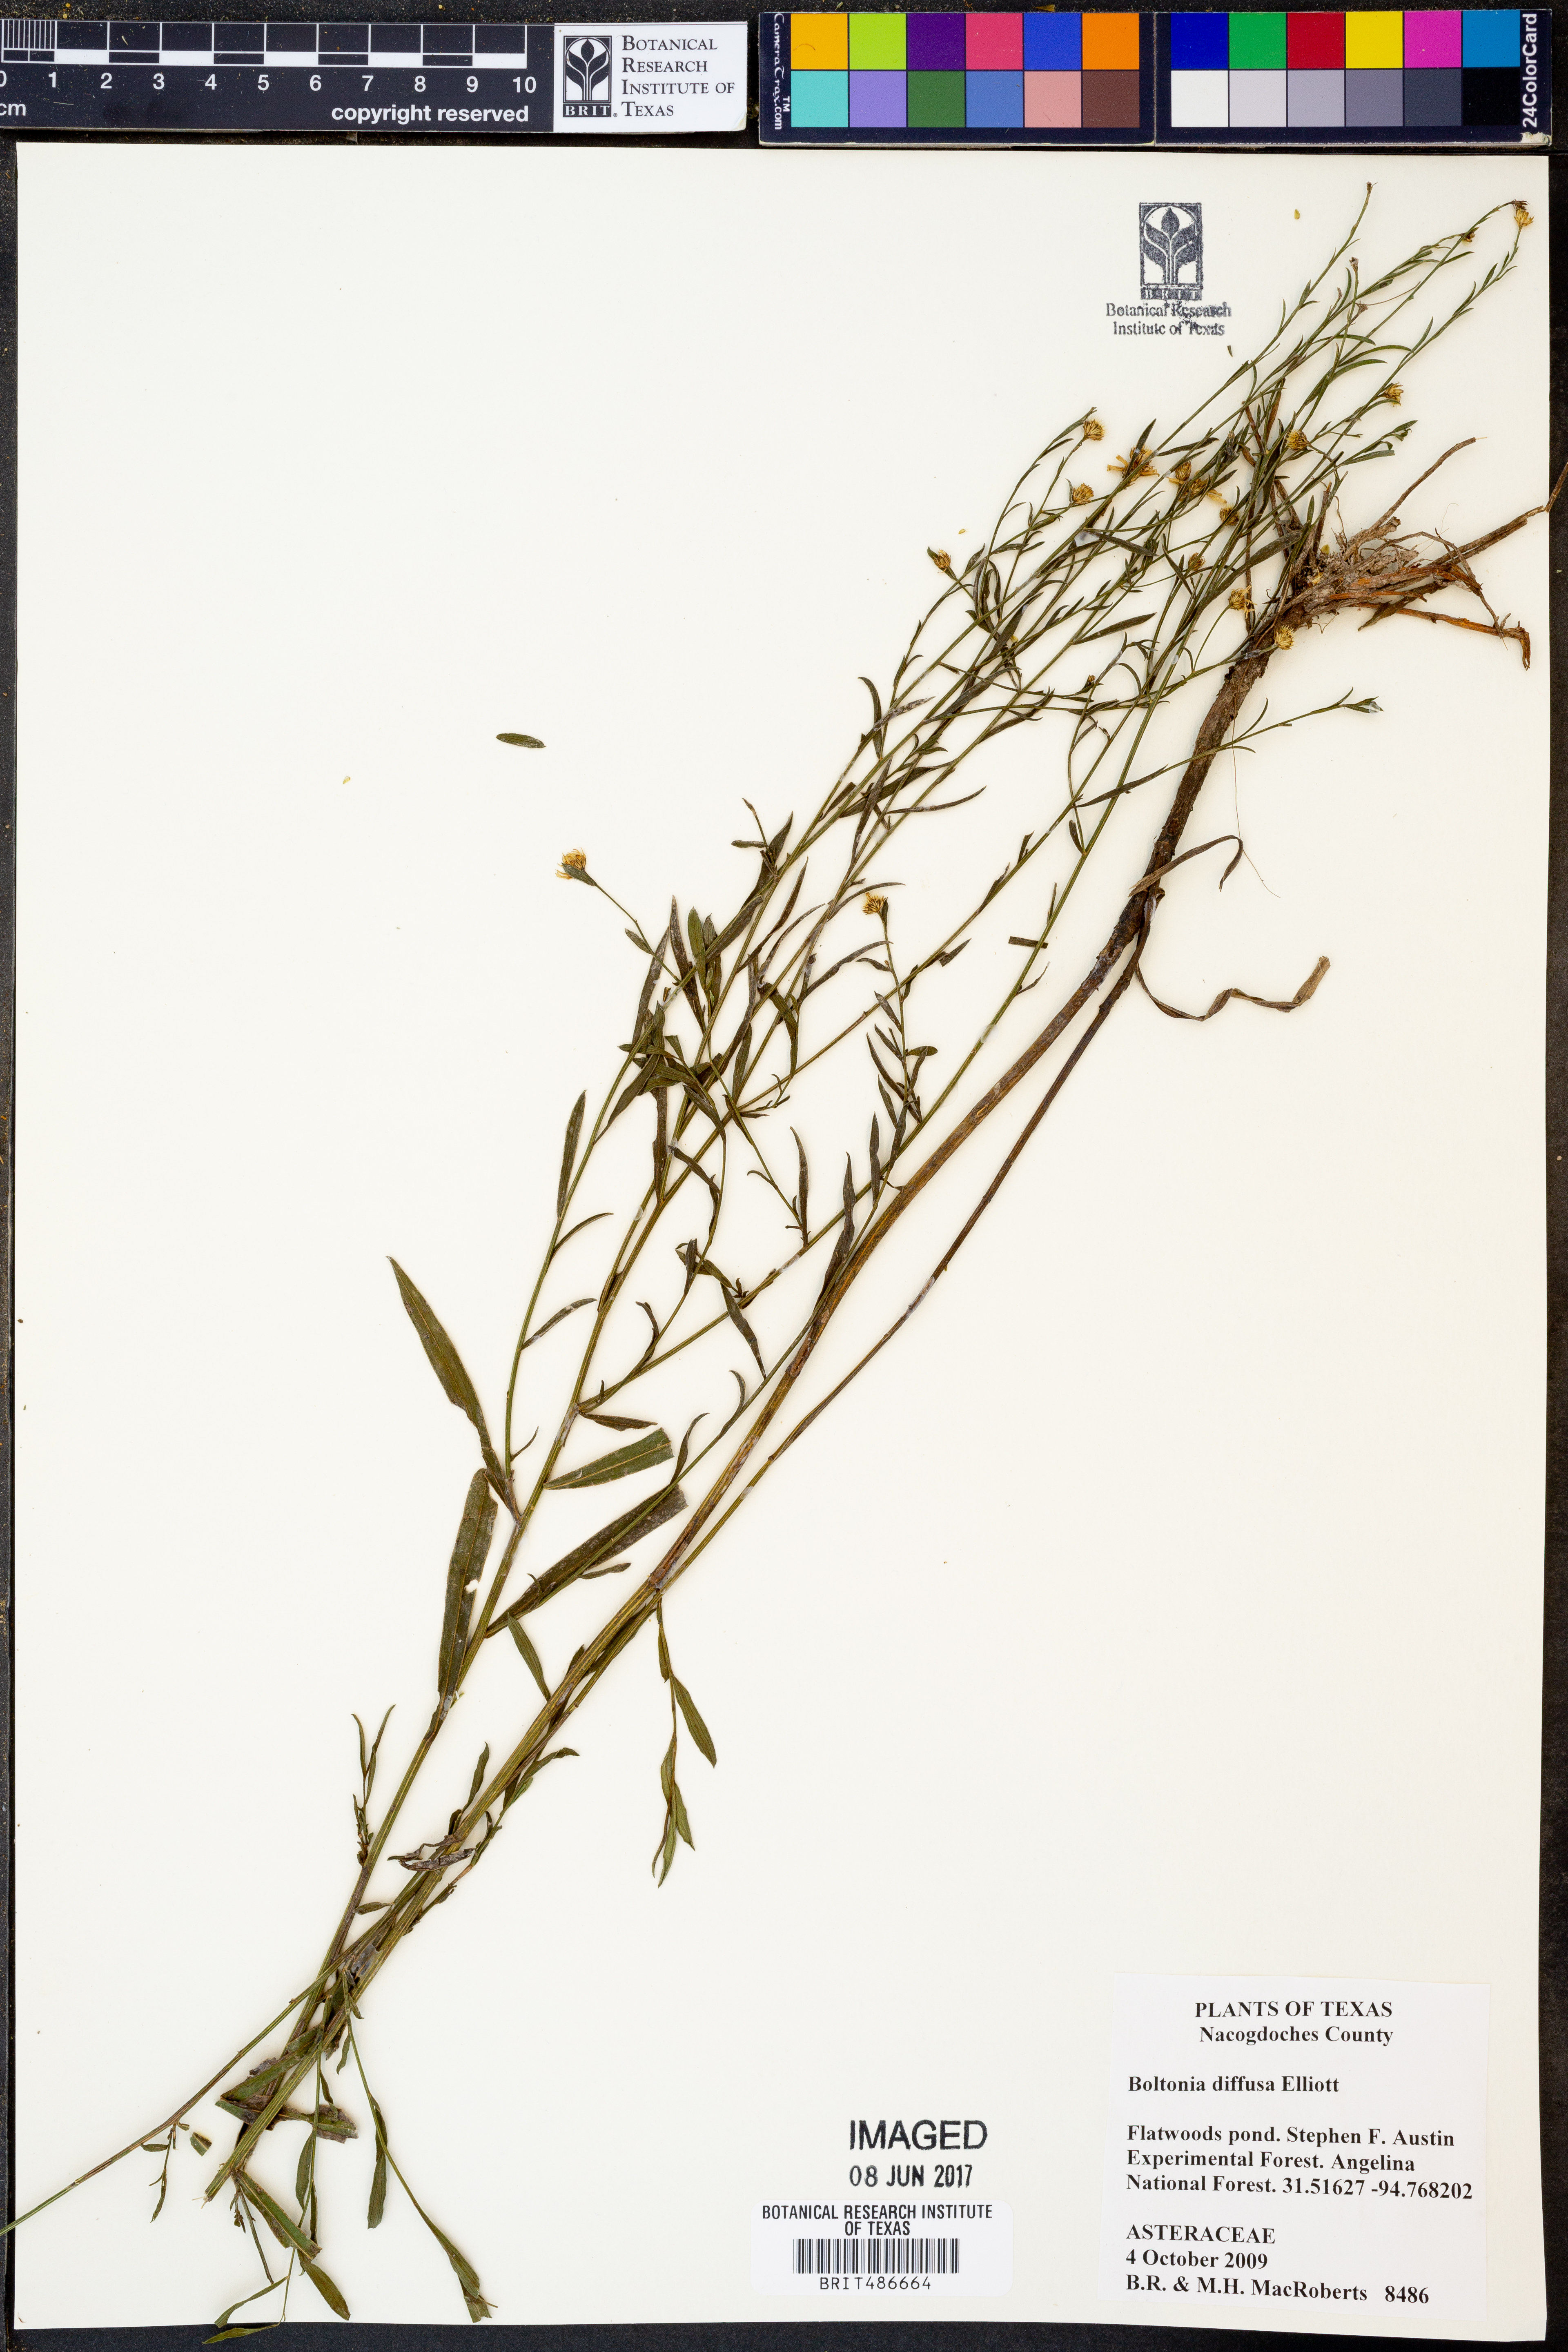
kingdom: Plantae
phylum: Tracheophyta
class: Magnoliopsida
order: Asterales
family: Asteraceae
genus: Boltonia
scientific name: Boltonia diffusa
